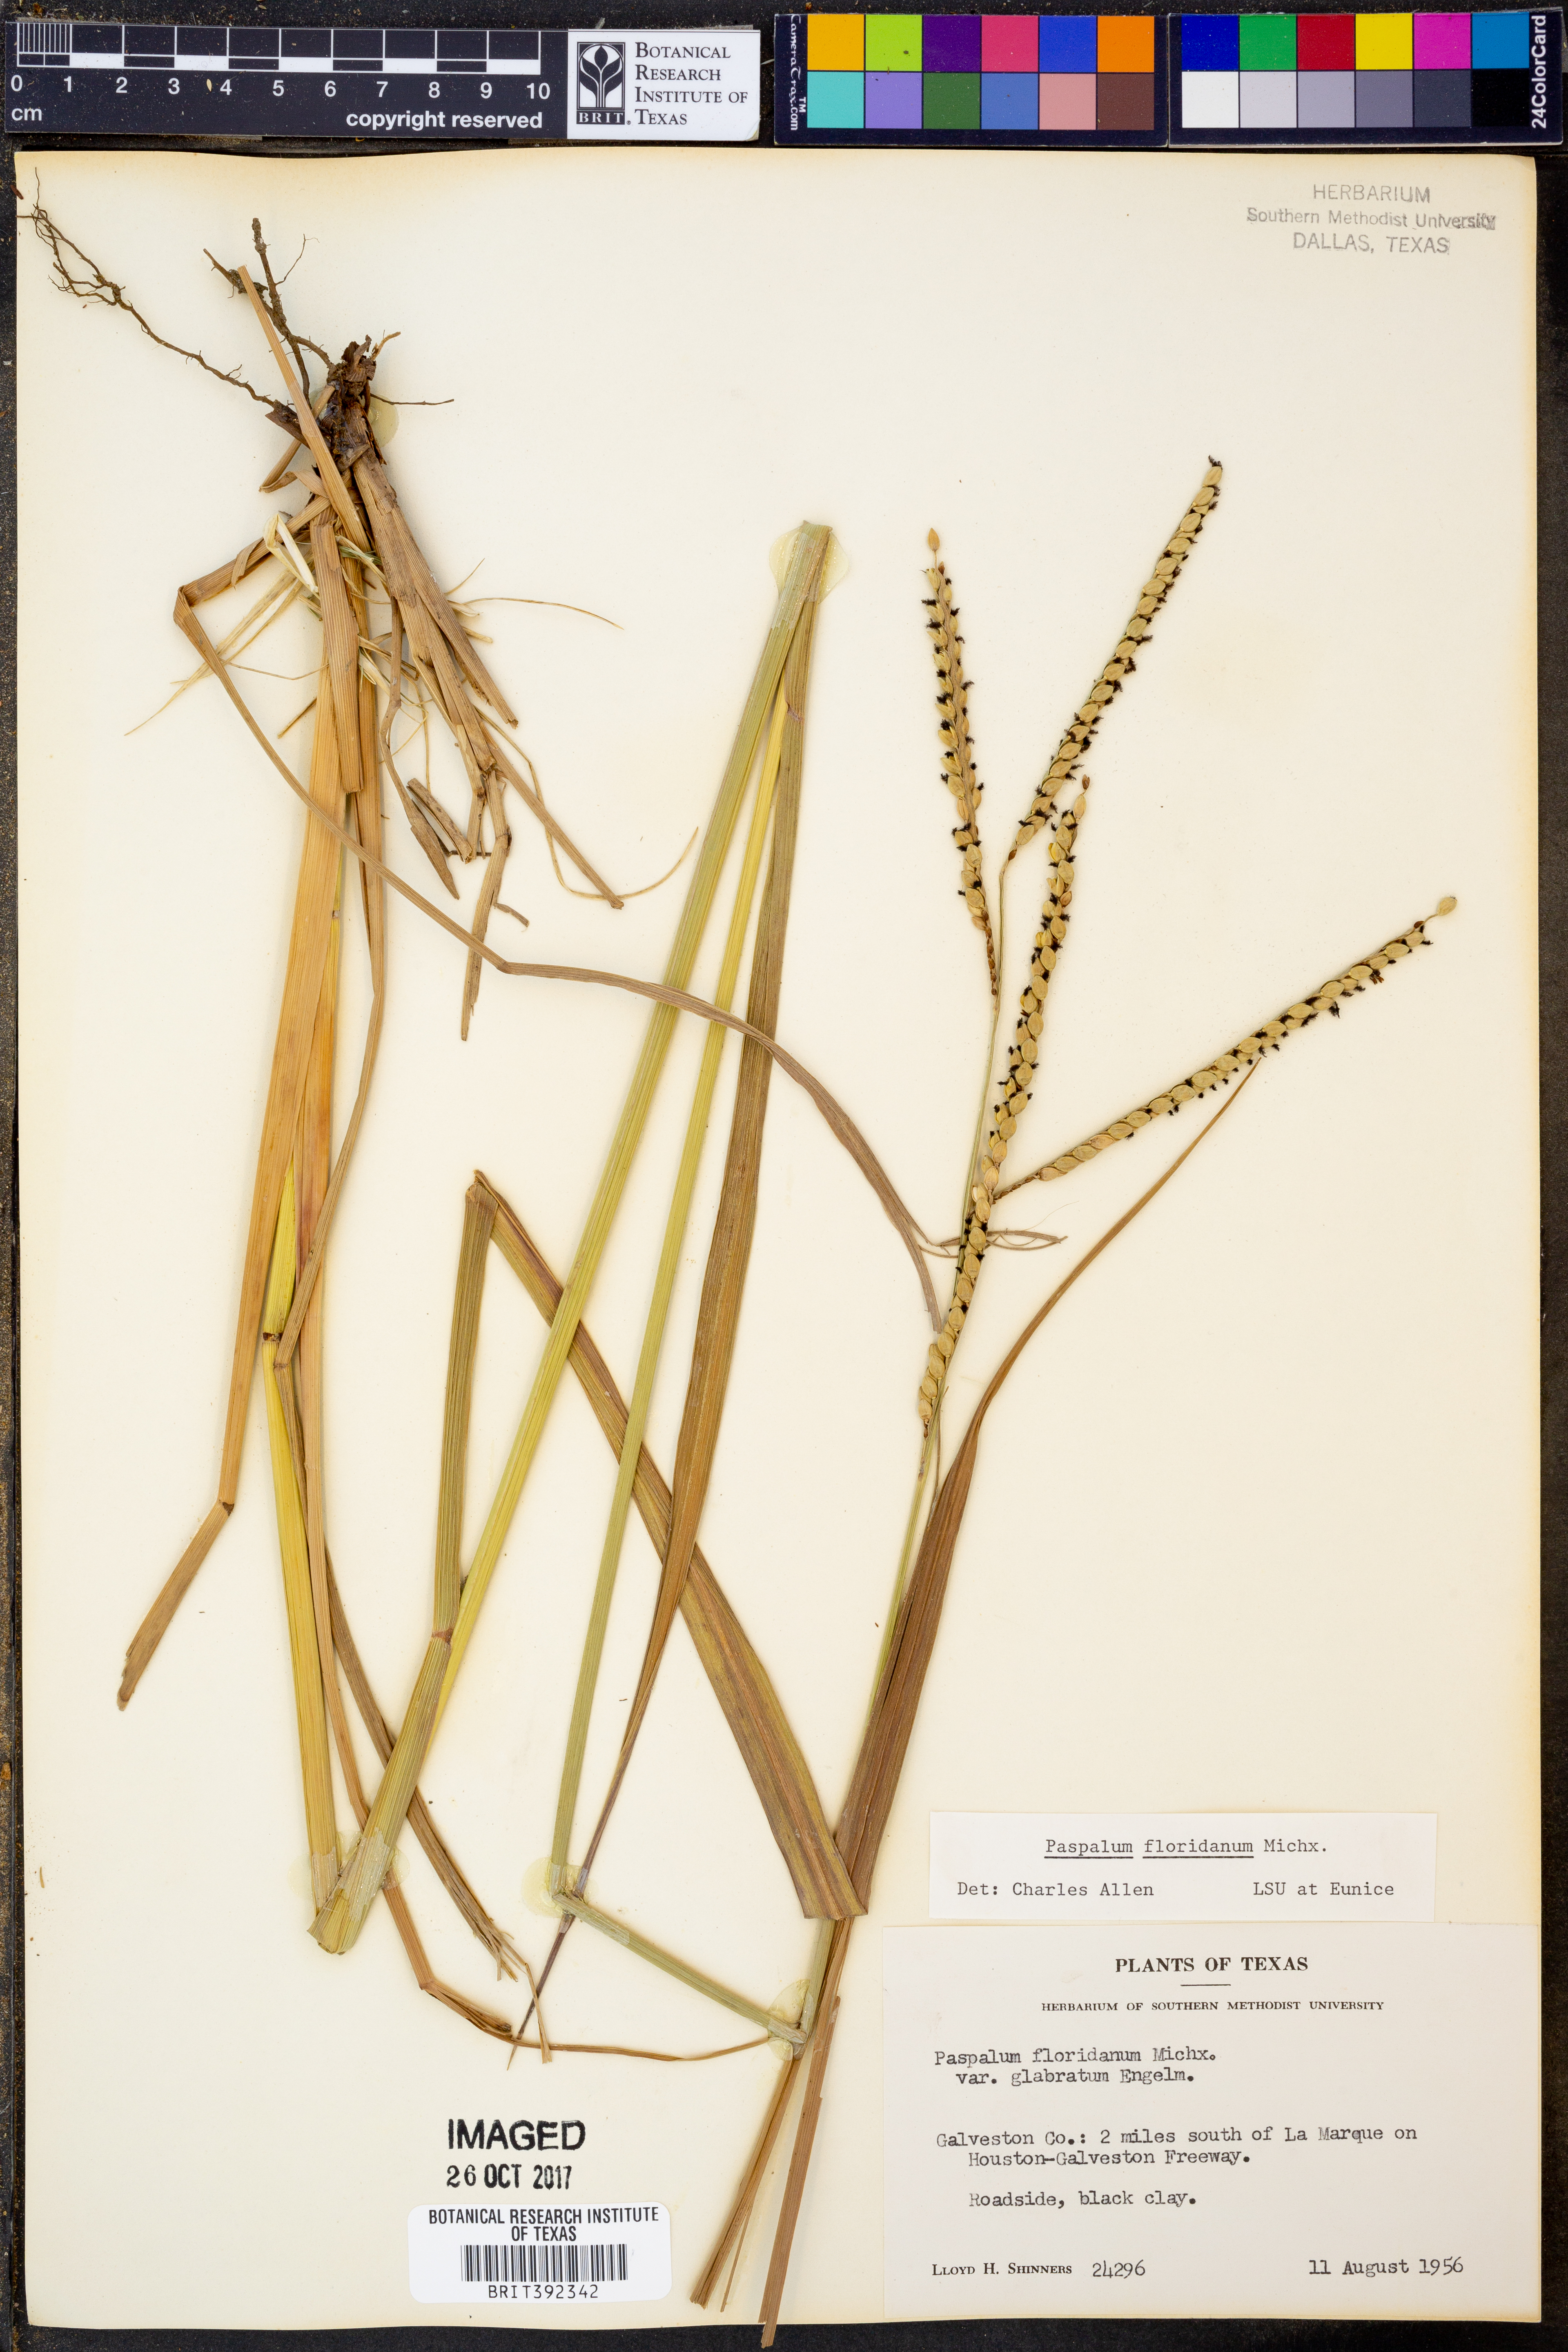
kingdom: Plantae
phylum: Tracheophyta
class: Liliopsida
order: Poales
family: Poaceae
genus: Paspalum
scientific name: Paspalum floridanum
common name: Florida paspalum
